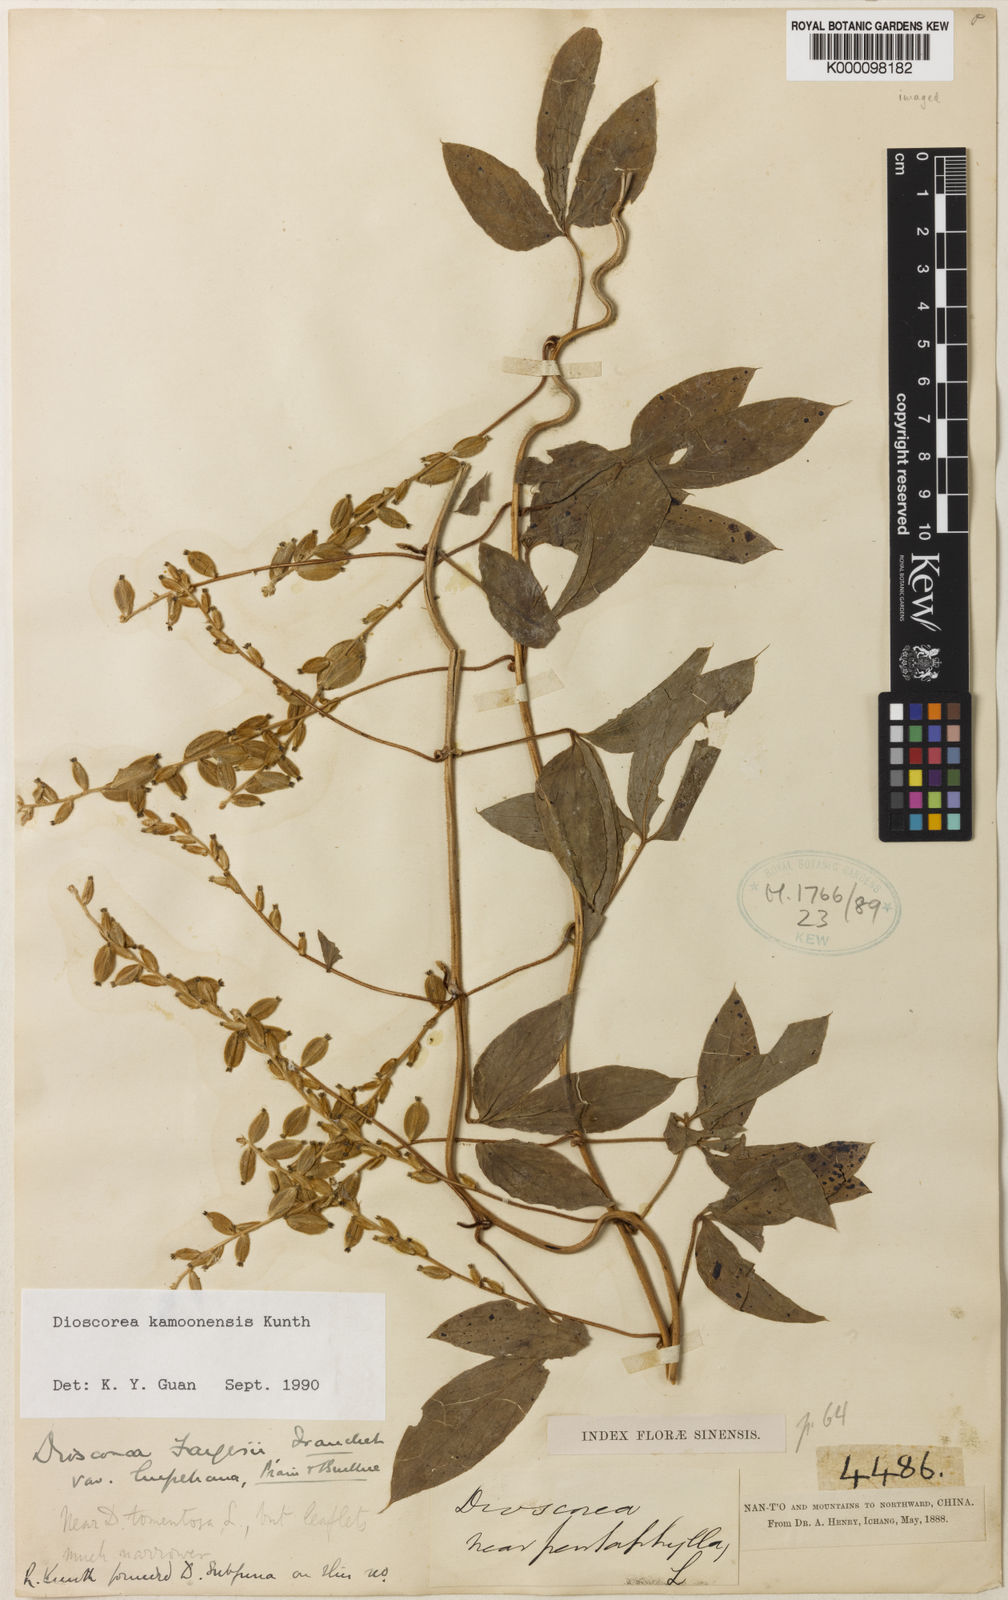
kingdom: Plantae
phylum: Tracheophyta
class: Liliopsida
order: Dioscoreales
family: Dioscoreaceae
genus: Dioscorea
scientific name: Dioscorea kamoonensis
